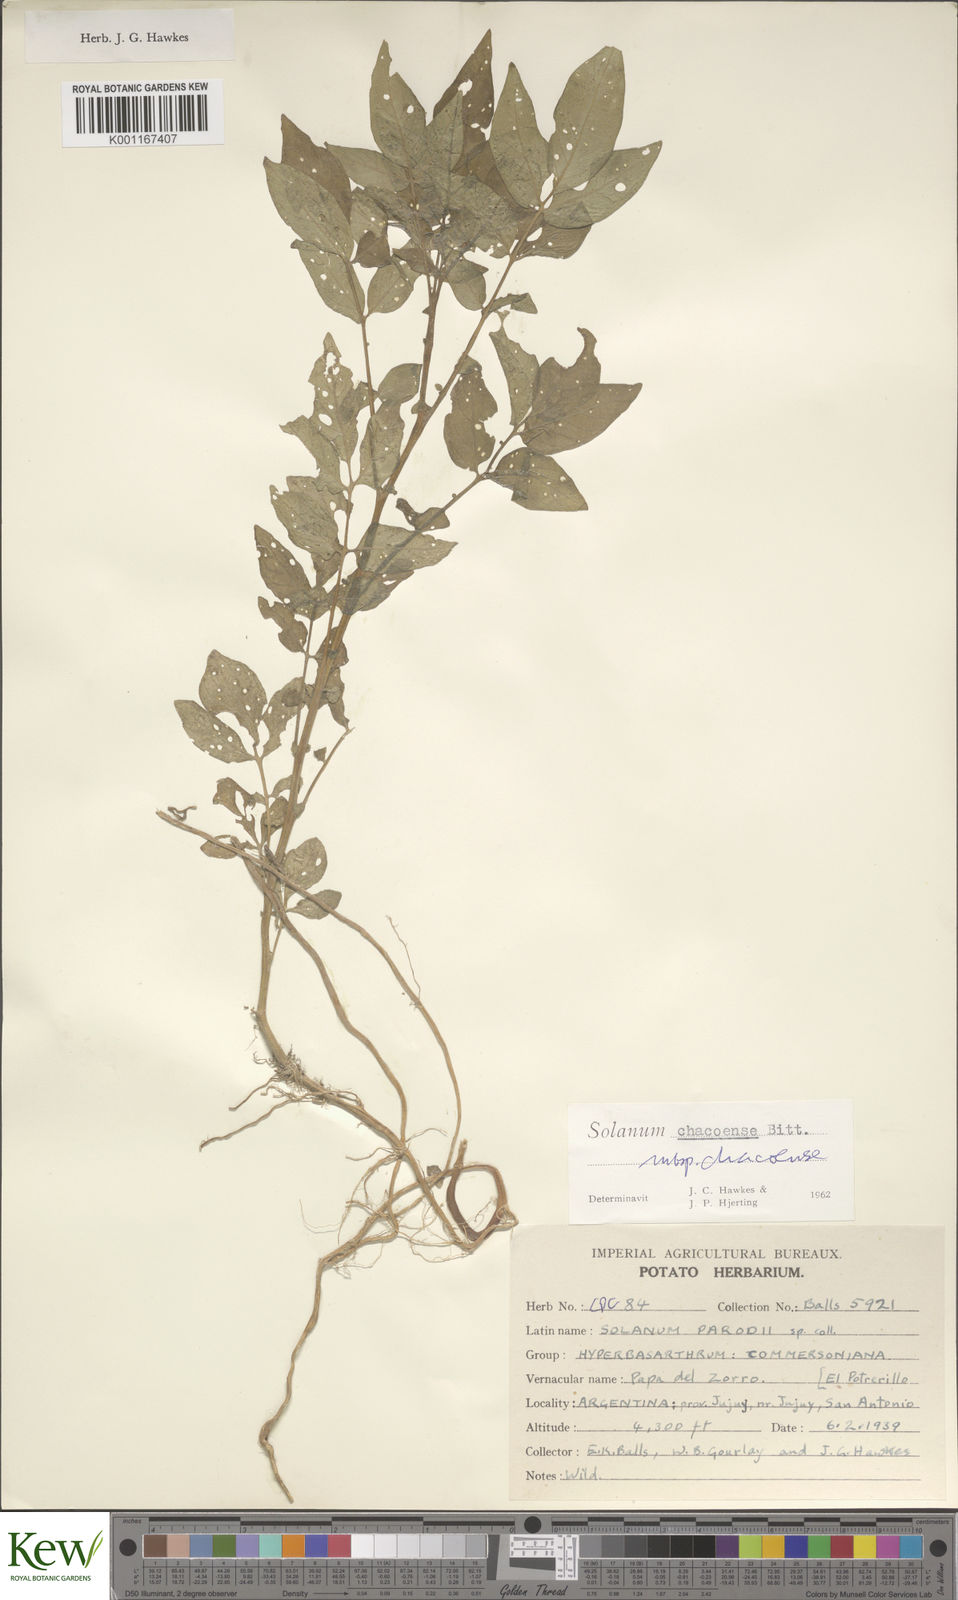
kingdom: Plantae
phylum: Tracheophyta
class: Magnoliopsida
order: Solanales
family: Solanaceae
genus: Solanum
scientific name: Solanum chacoense
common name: Chaco potato
